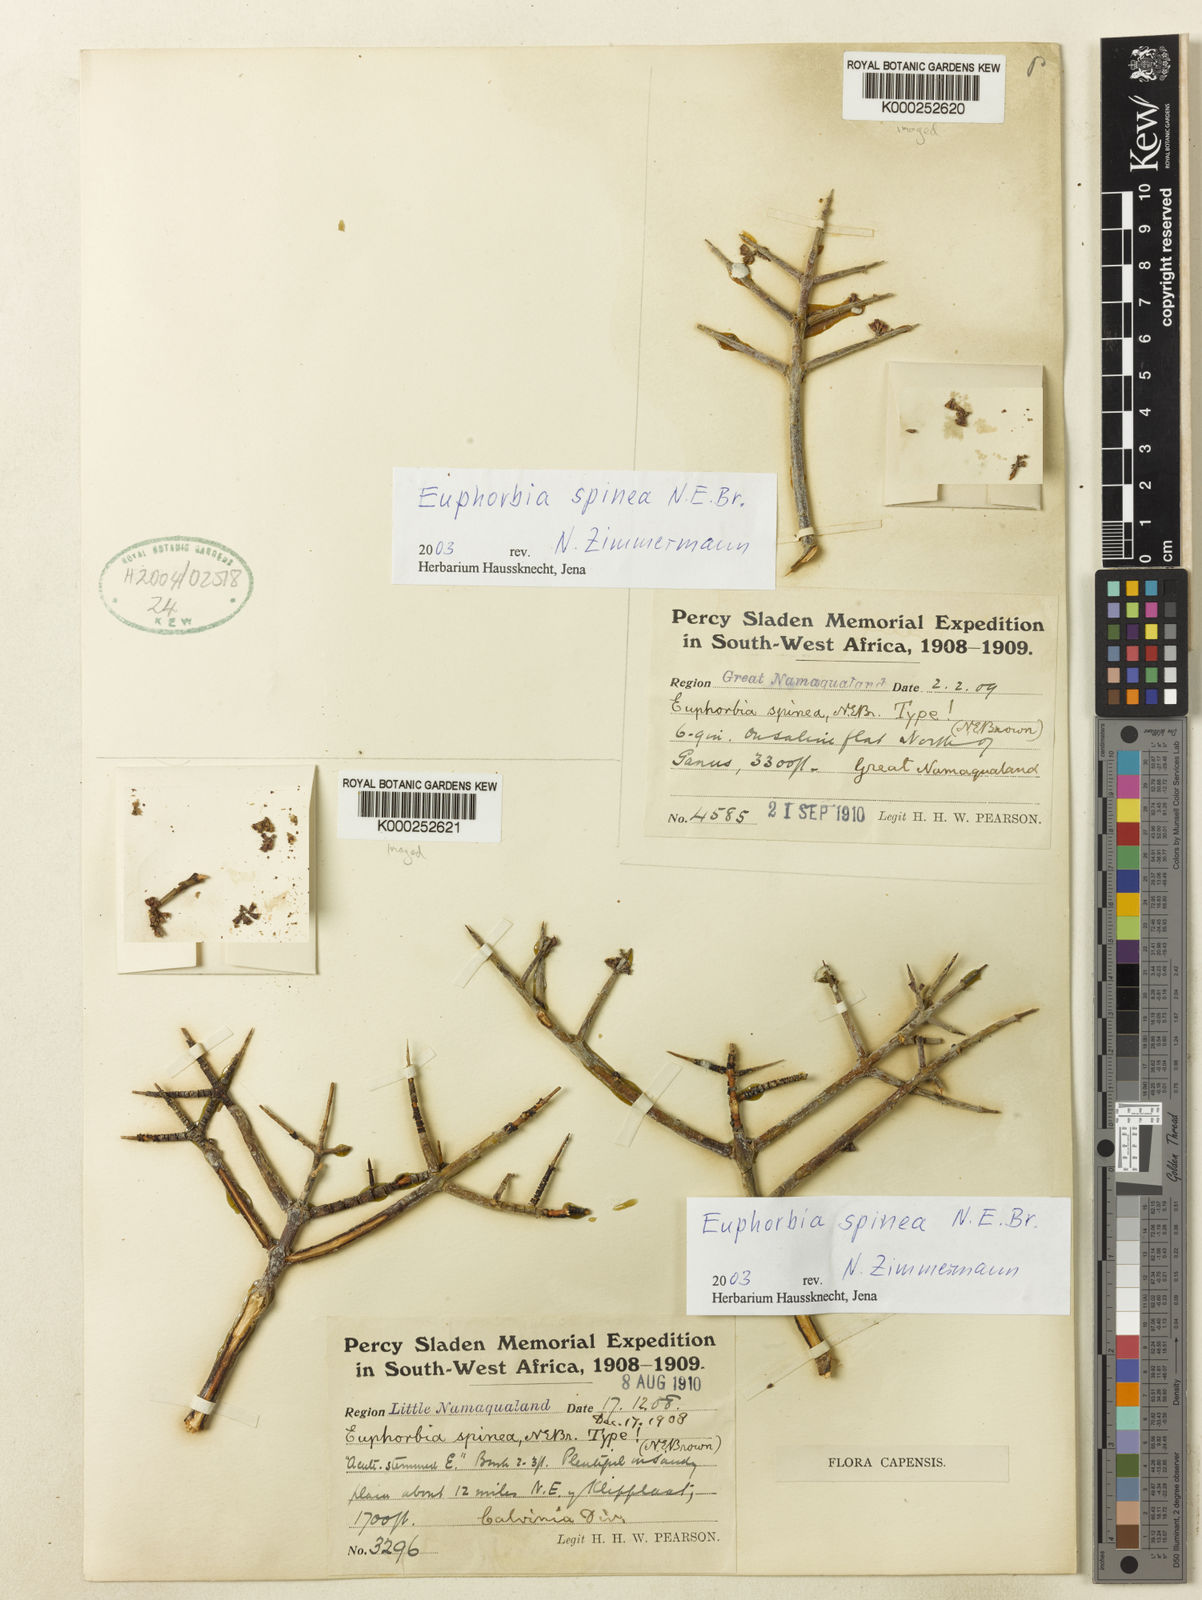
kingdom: Plantae
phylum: Tracheophyta
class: Magnoliopsida
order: Malpighiales
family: Euphorbiaceae
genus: Euphorbia
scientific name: Euphorbia spinea
